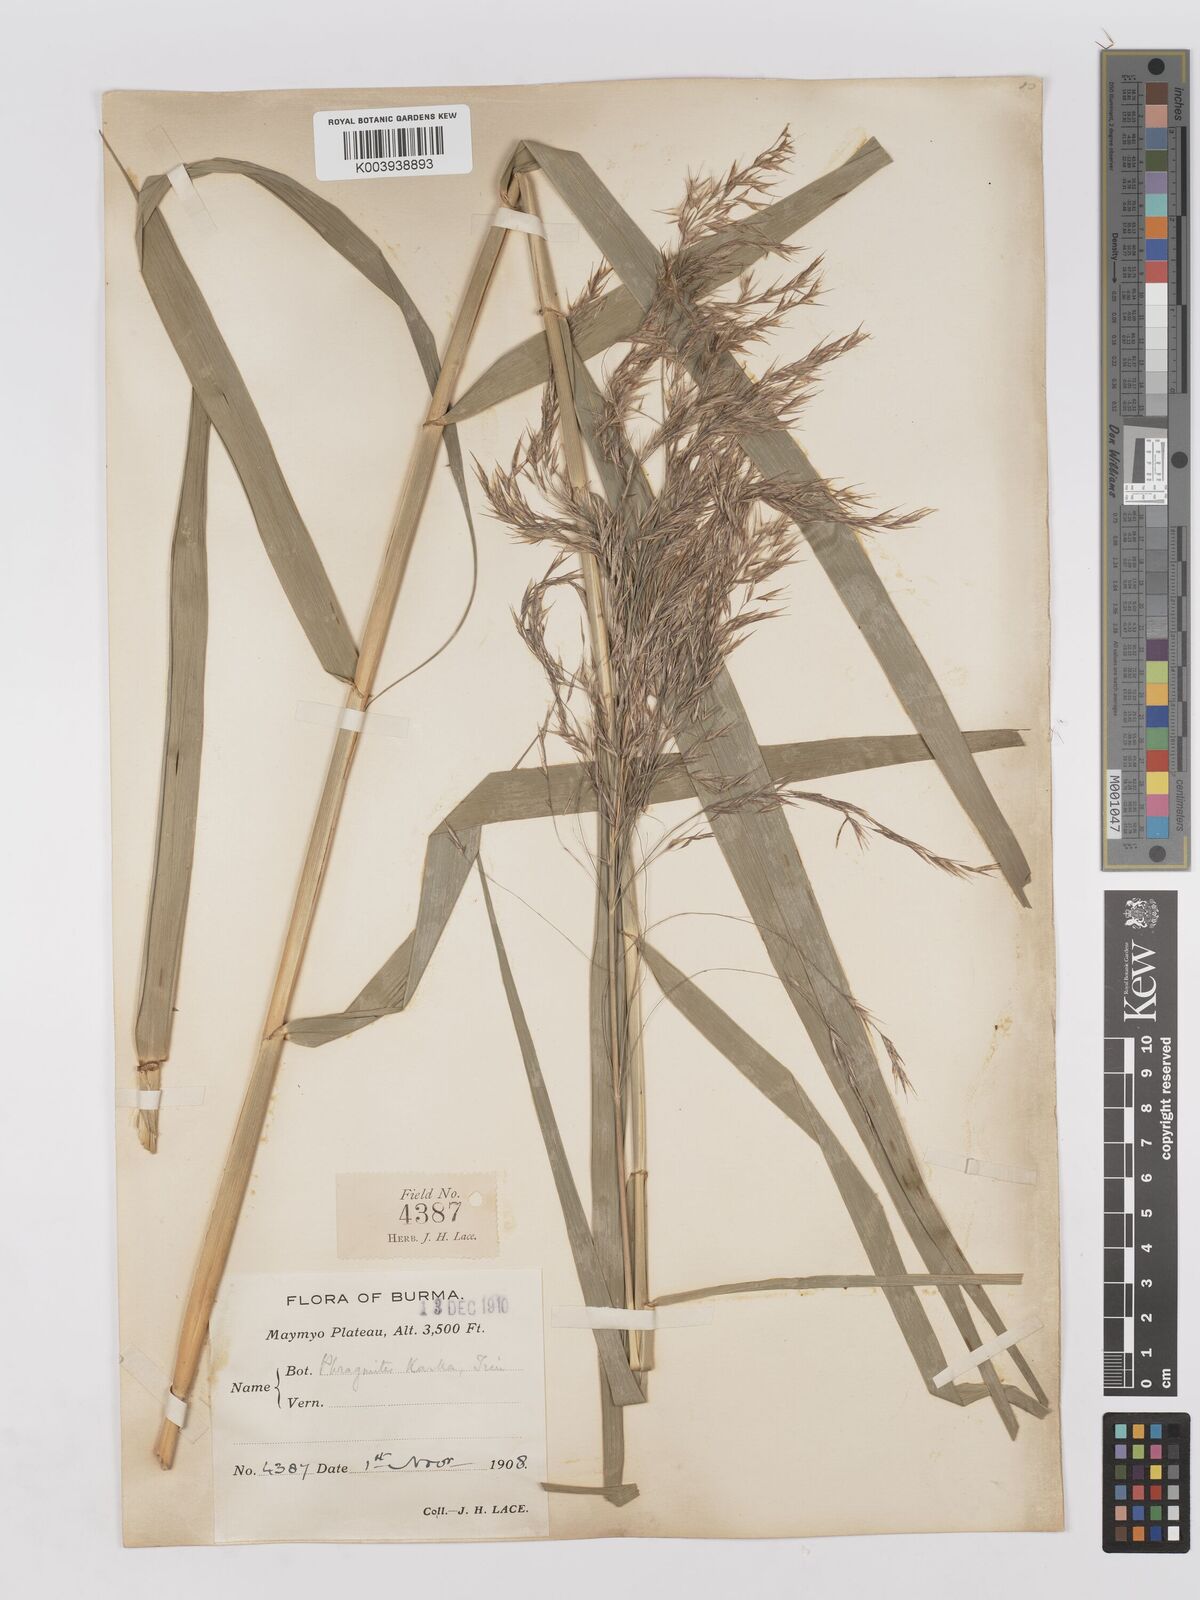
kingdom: Plantae
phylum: Tracheophyta
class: Liliopsida
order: Poales
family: Poaceae
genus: Phragmites
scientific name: Phragmites karka
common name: Tropical reed
